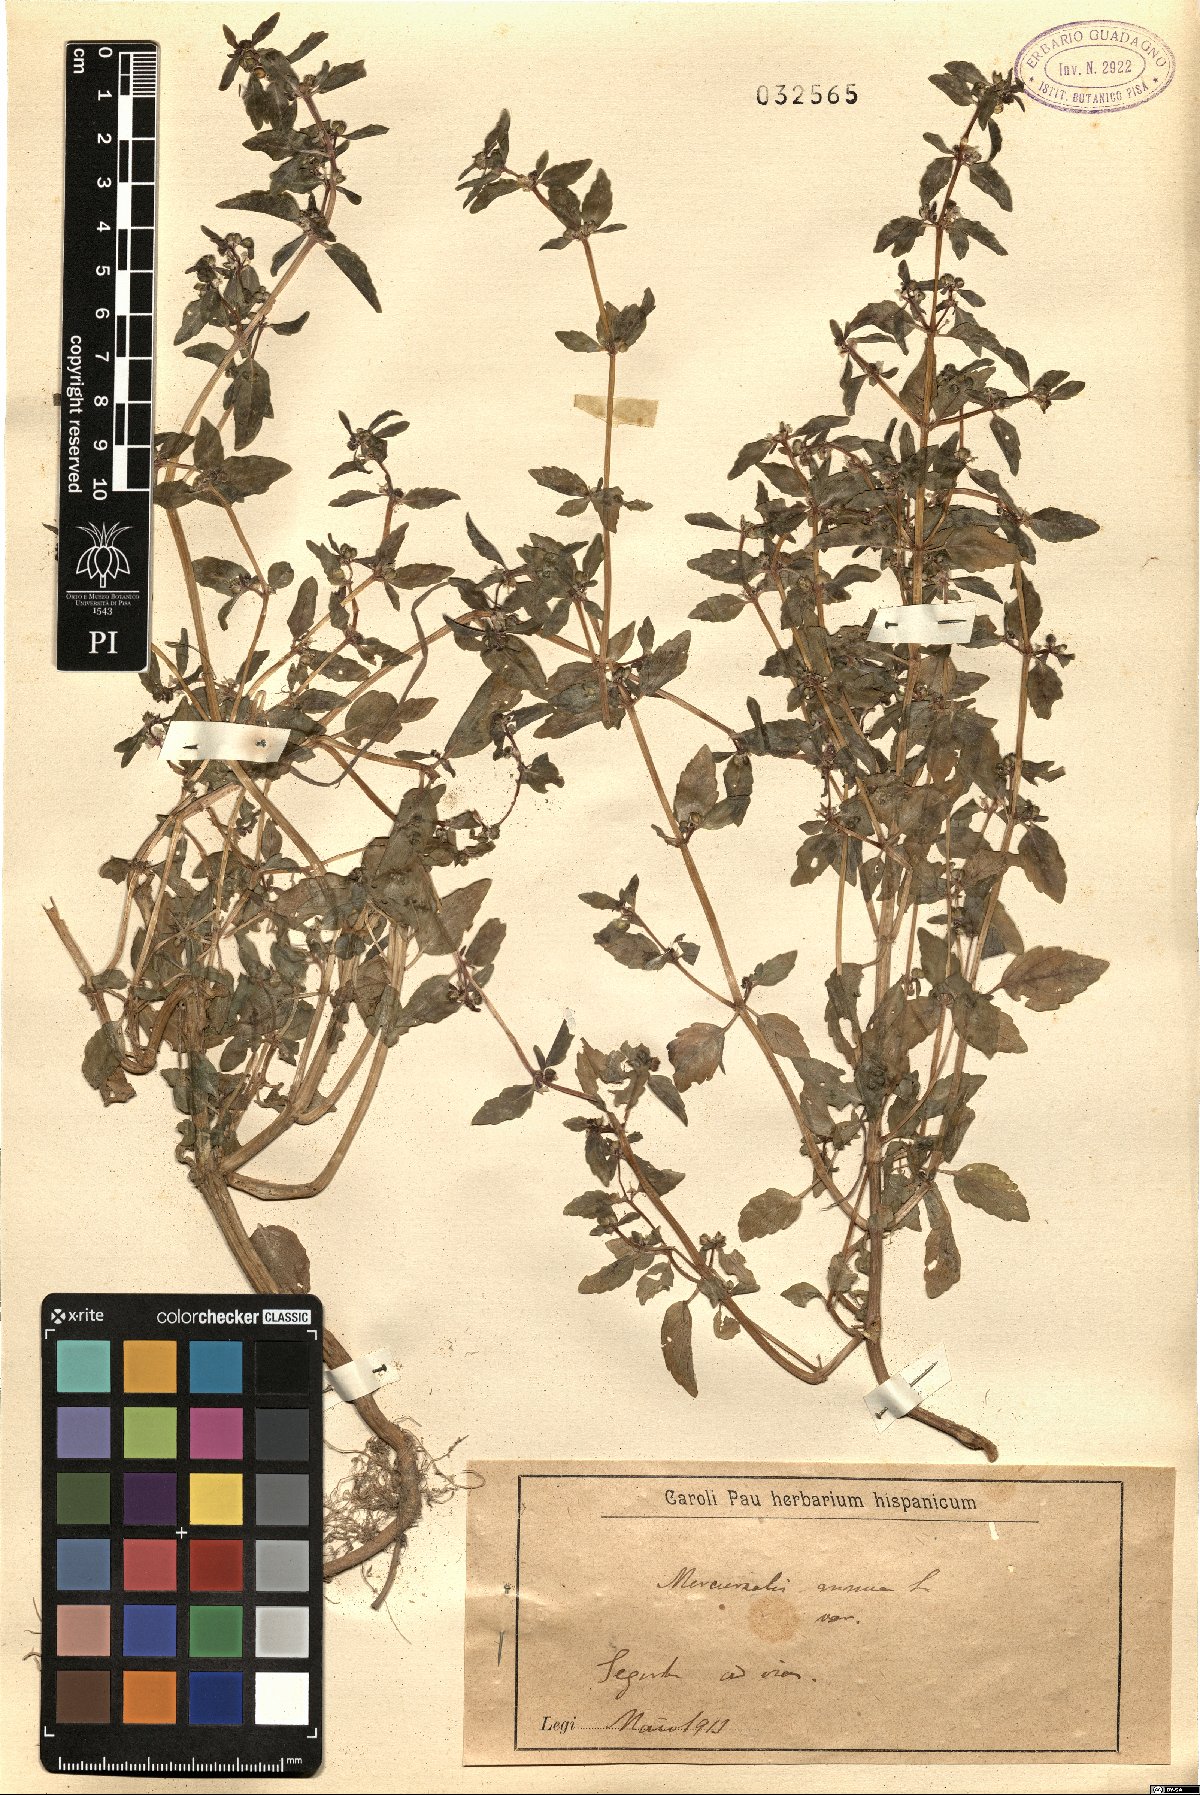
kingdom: Plantae
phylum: Tracheophyta
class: Magnoliopsida
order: Malpighiales
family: Euphorbiaceae
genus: Mercurialis
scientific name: Mercurialis annua
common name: Annual mercury
